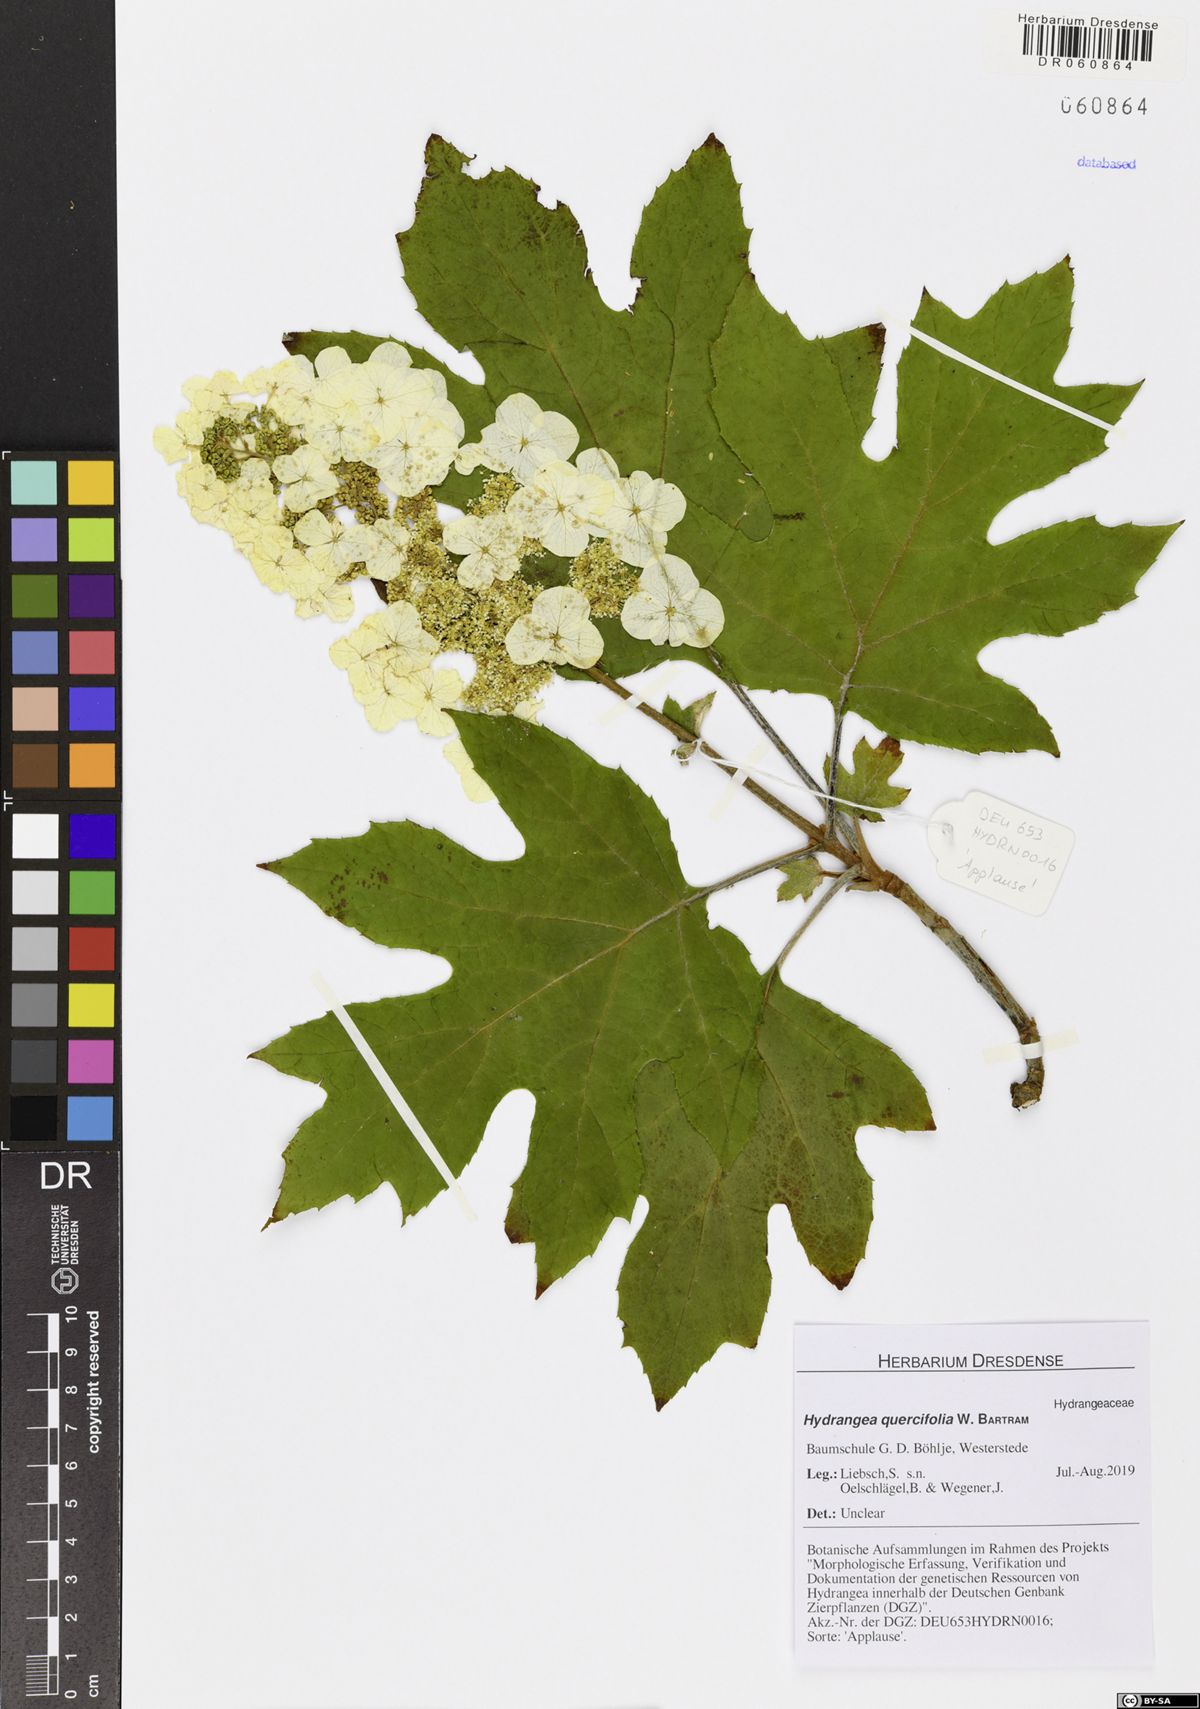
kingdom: Plantae
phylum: Tracheophyta
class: Magnoliopsida
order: Cornales
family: Hydrangeaceae
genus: Hydrangea
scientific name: Hydrangea quercifolia
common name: Oak-leaf hydrangea
